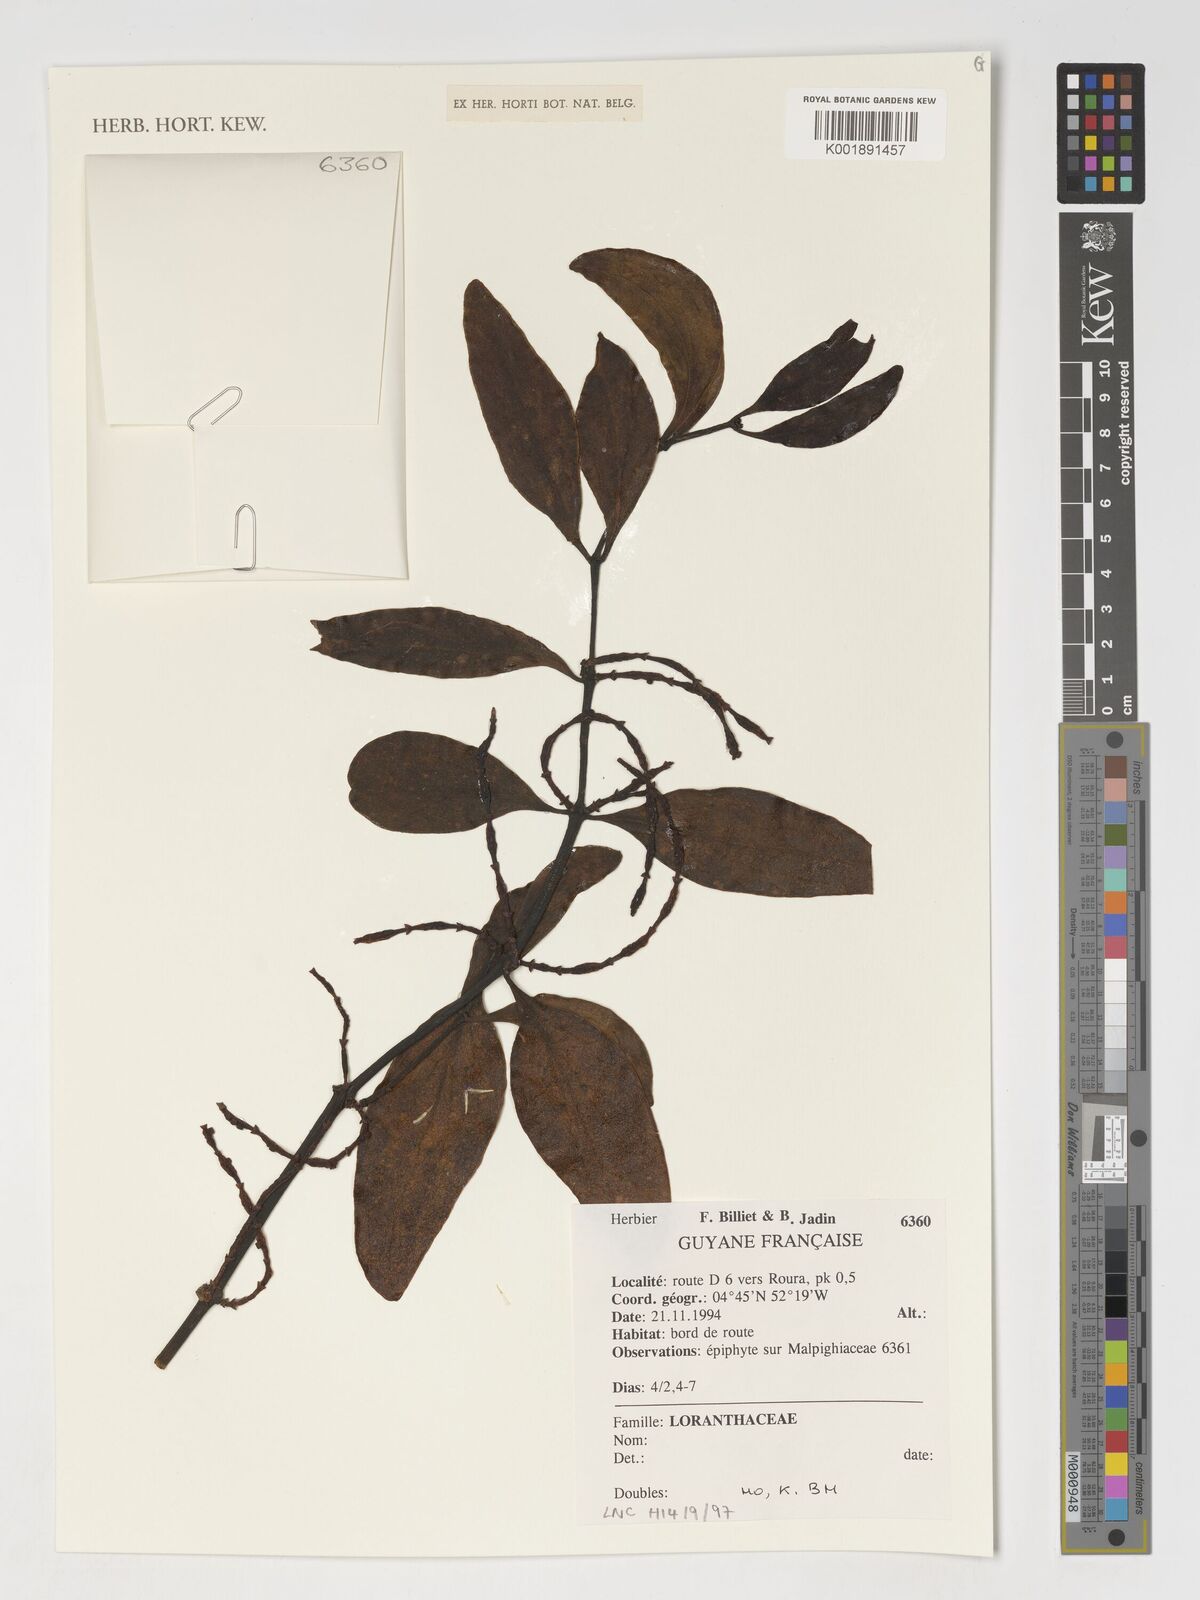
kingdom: Plantae
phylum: Tracheophyta
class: Magnoliopsida
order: Santalales
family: Loranthaceae
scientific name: Loranthaceae
